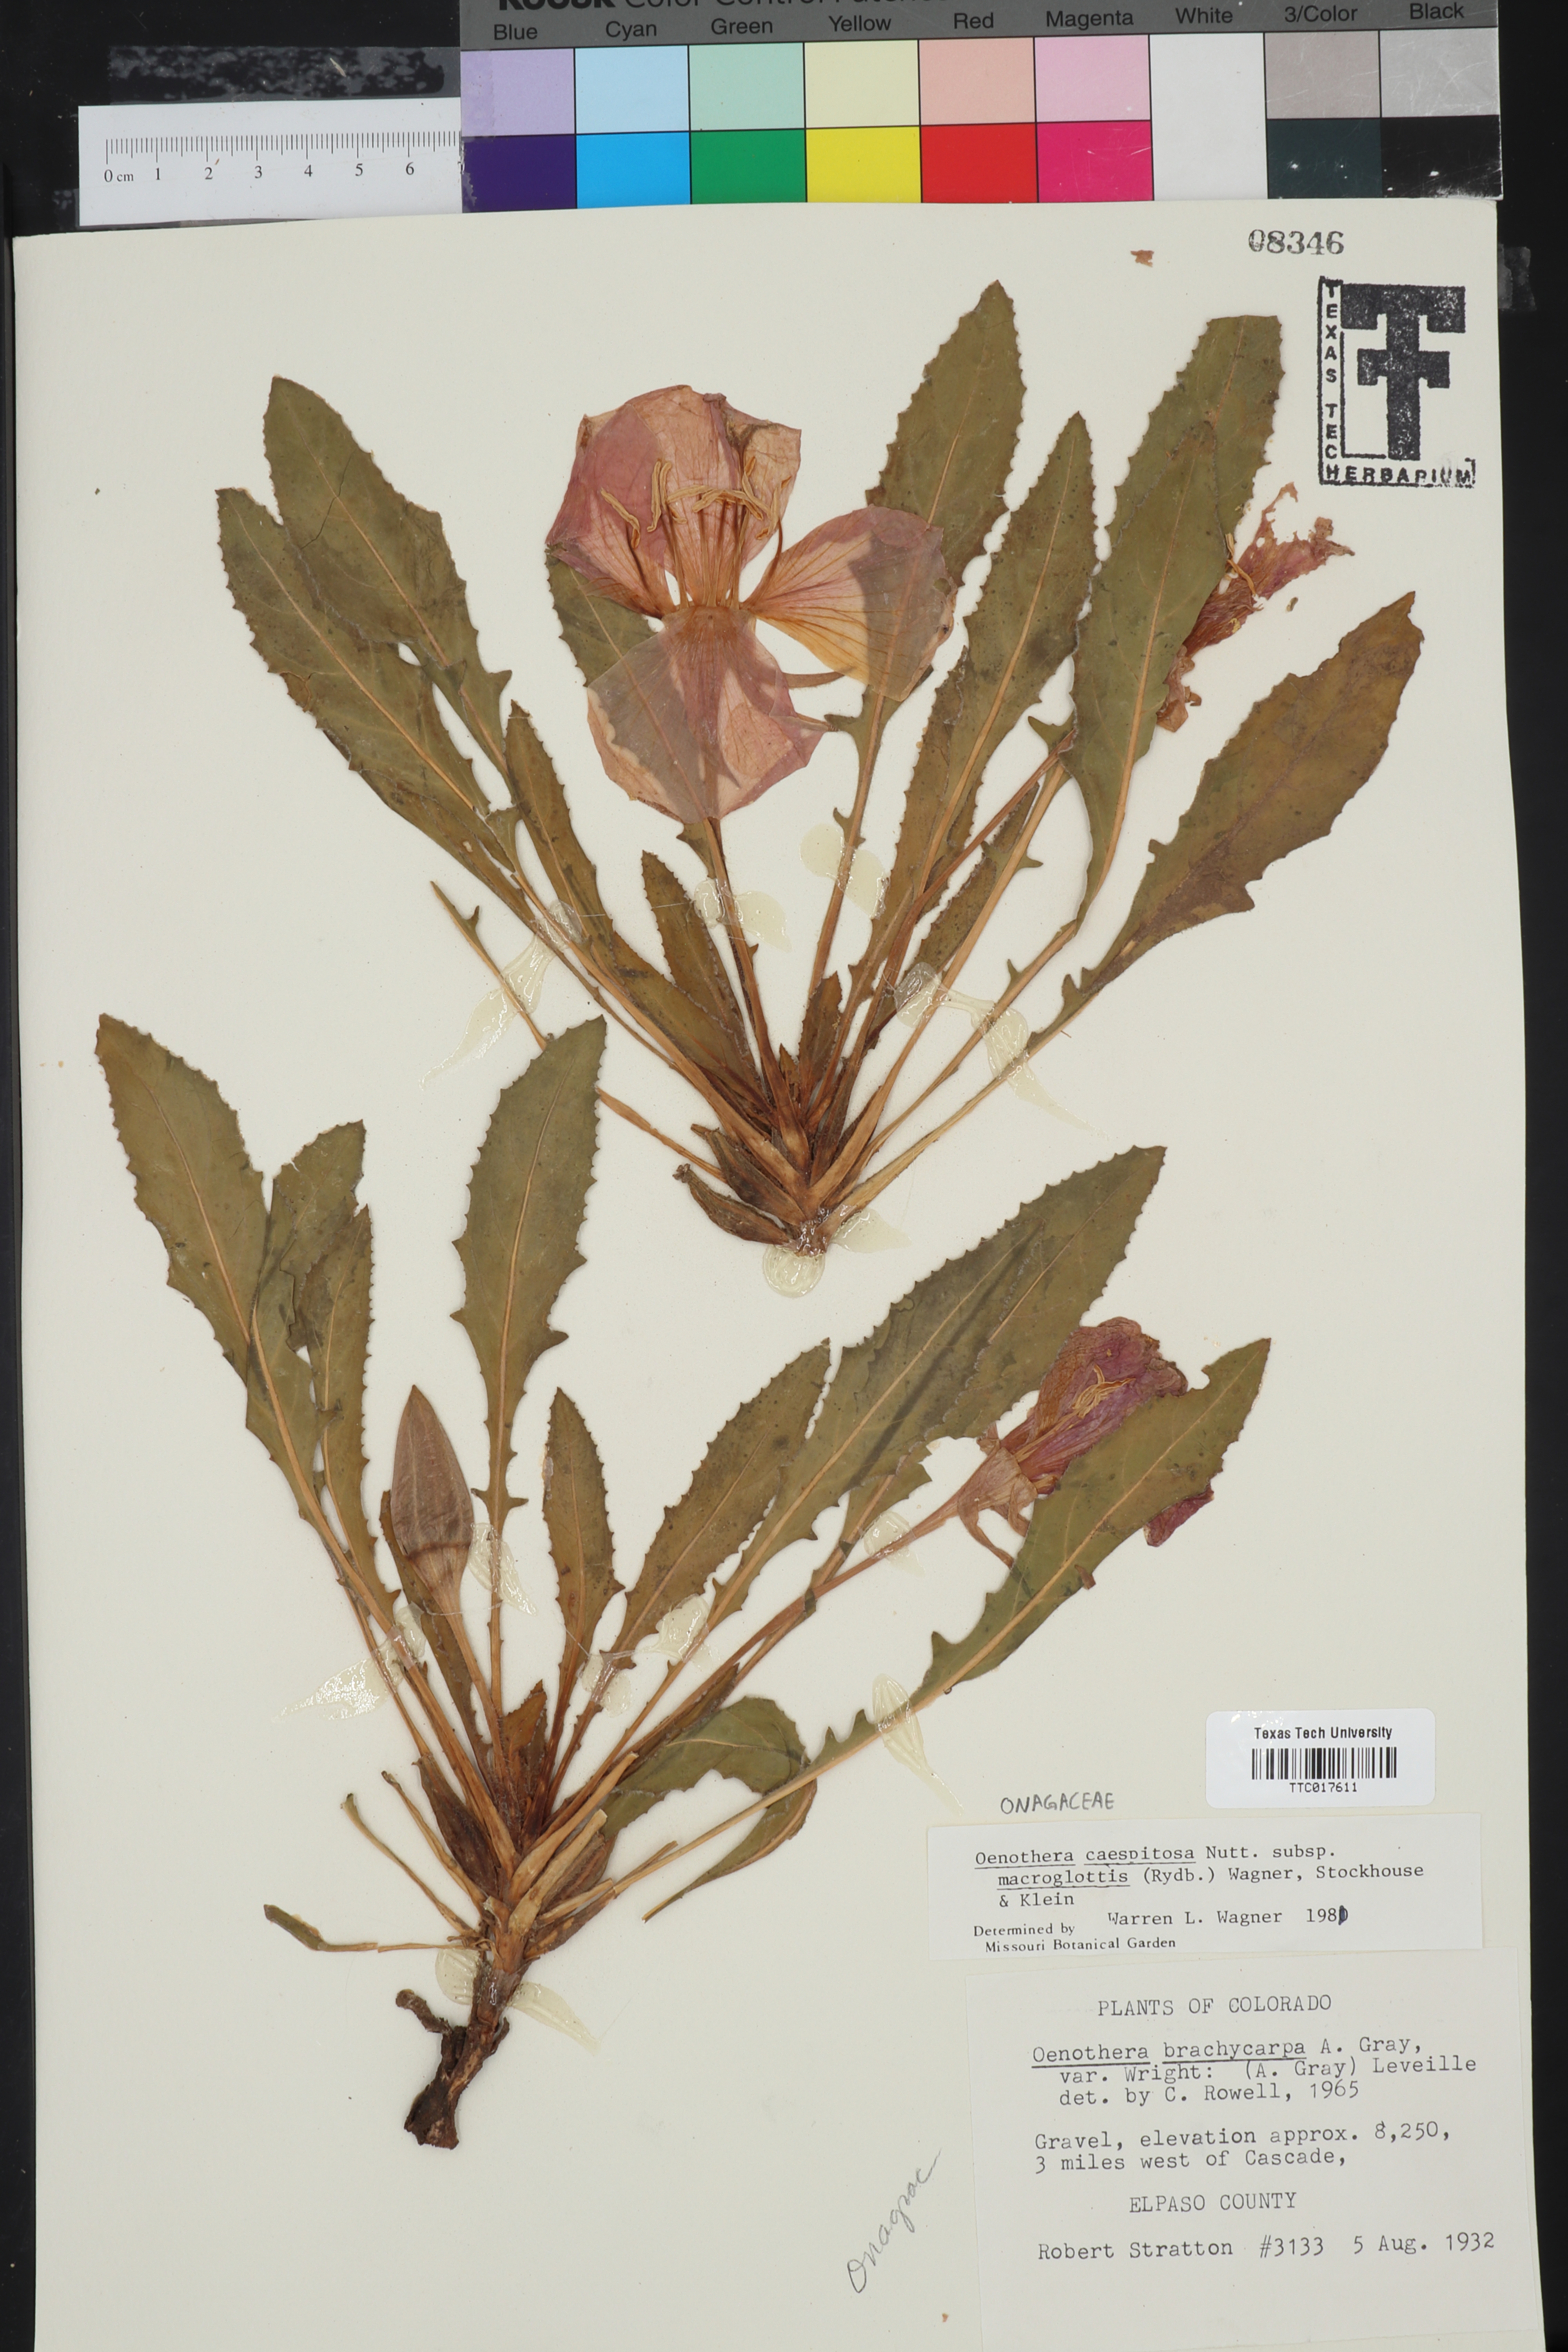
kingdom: Plantae
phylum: Tracheophyta
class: Magnoliopsida
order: Myrtales
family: Onagraceae
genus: Oenothera
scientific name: Oenothera cespitosa
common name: Tufted evening-primrose
